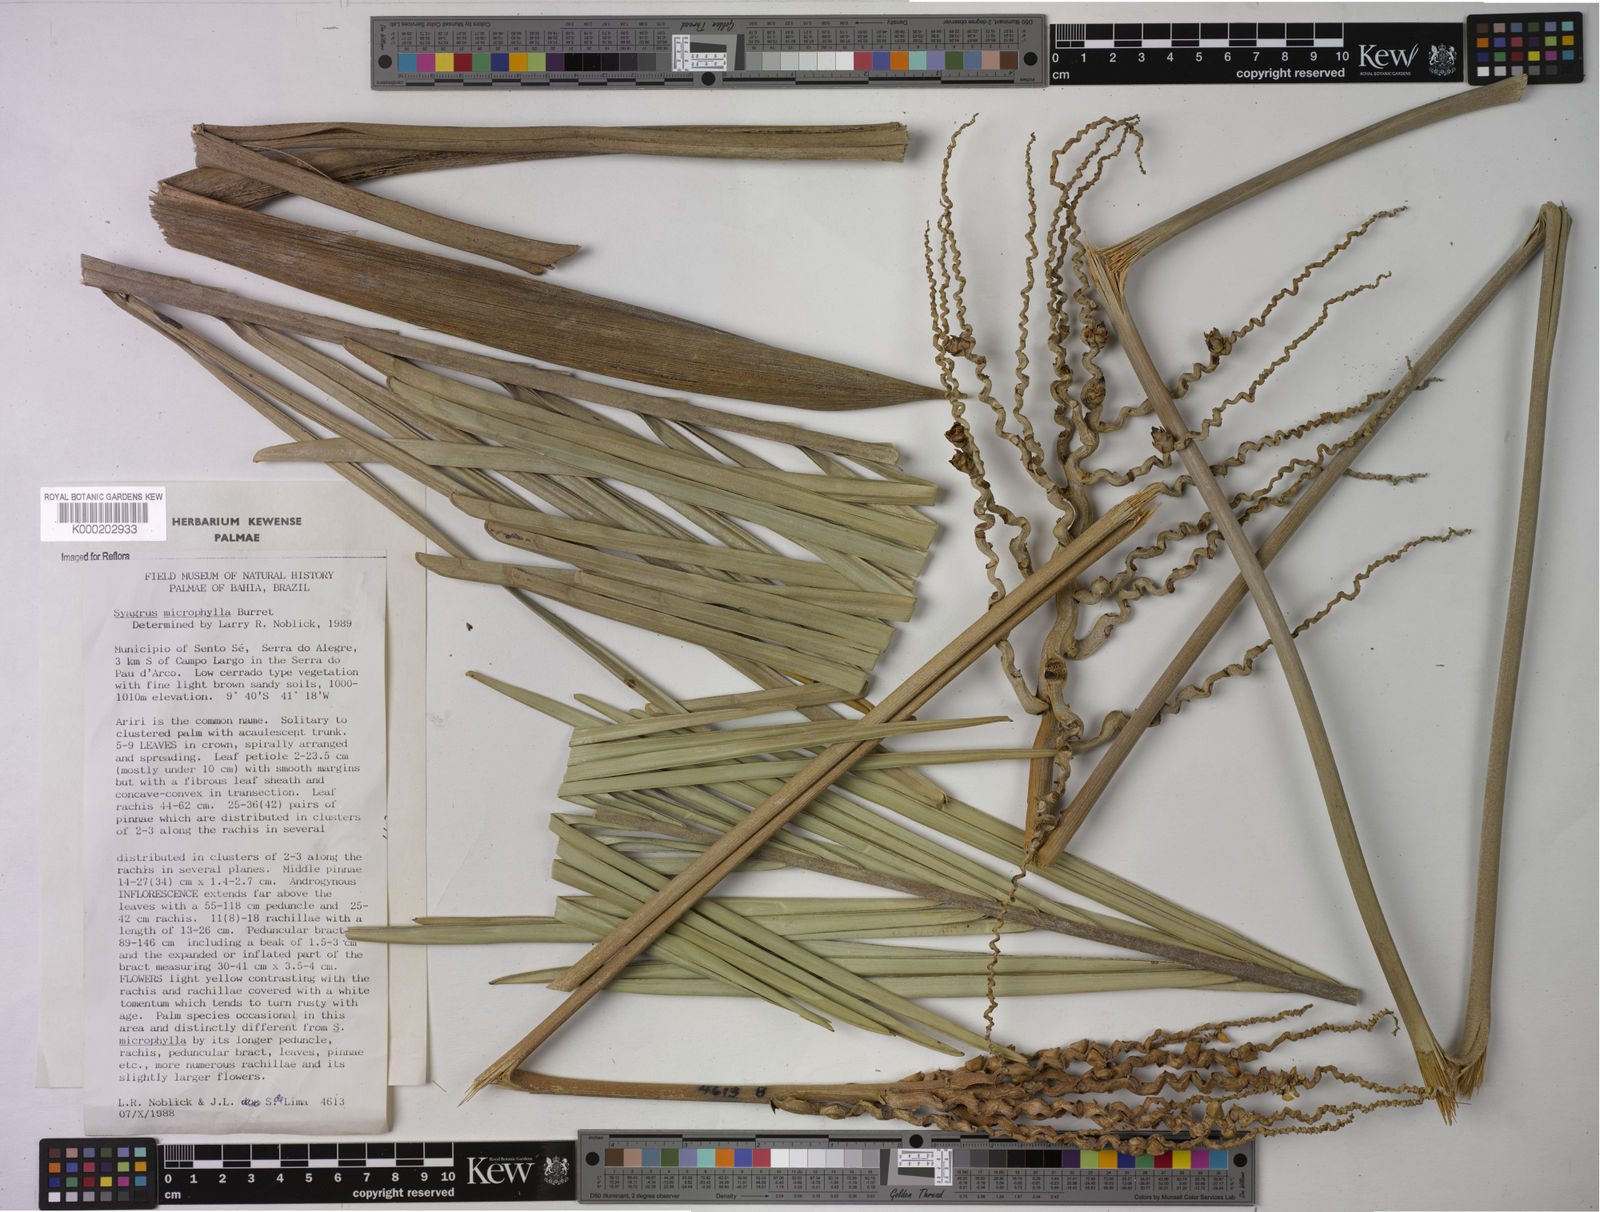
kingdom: Plantae
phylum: Tracheophyta
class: Liliopsida
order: Arecales
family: Arecaceae
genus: Syagrus
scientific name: Syagrus microphylla
